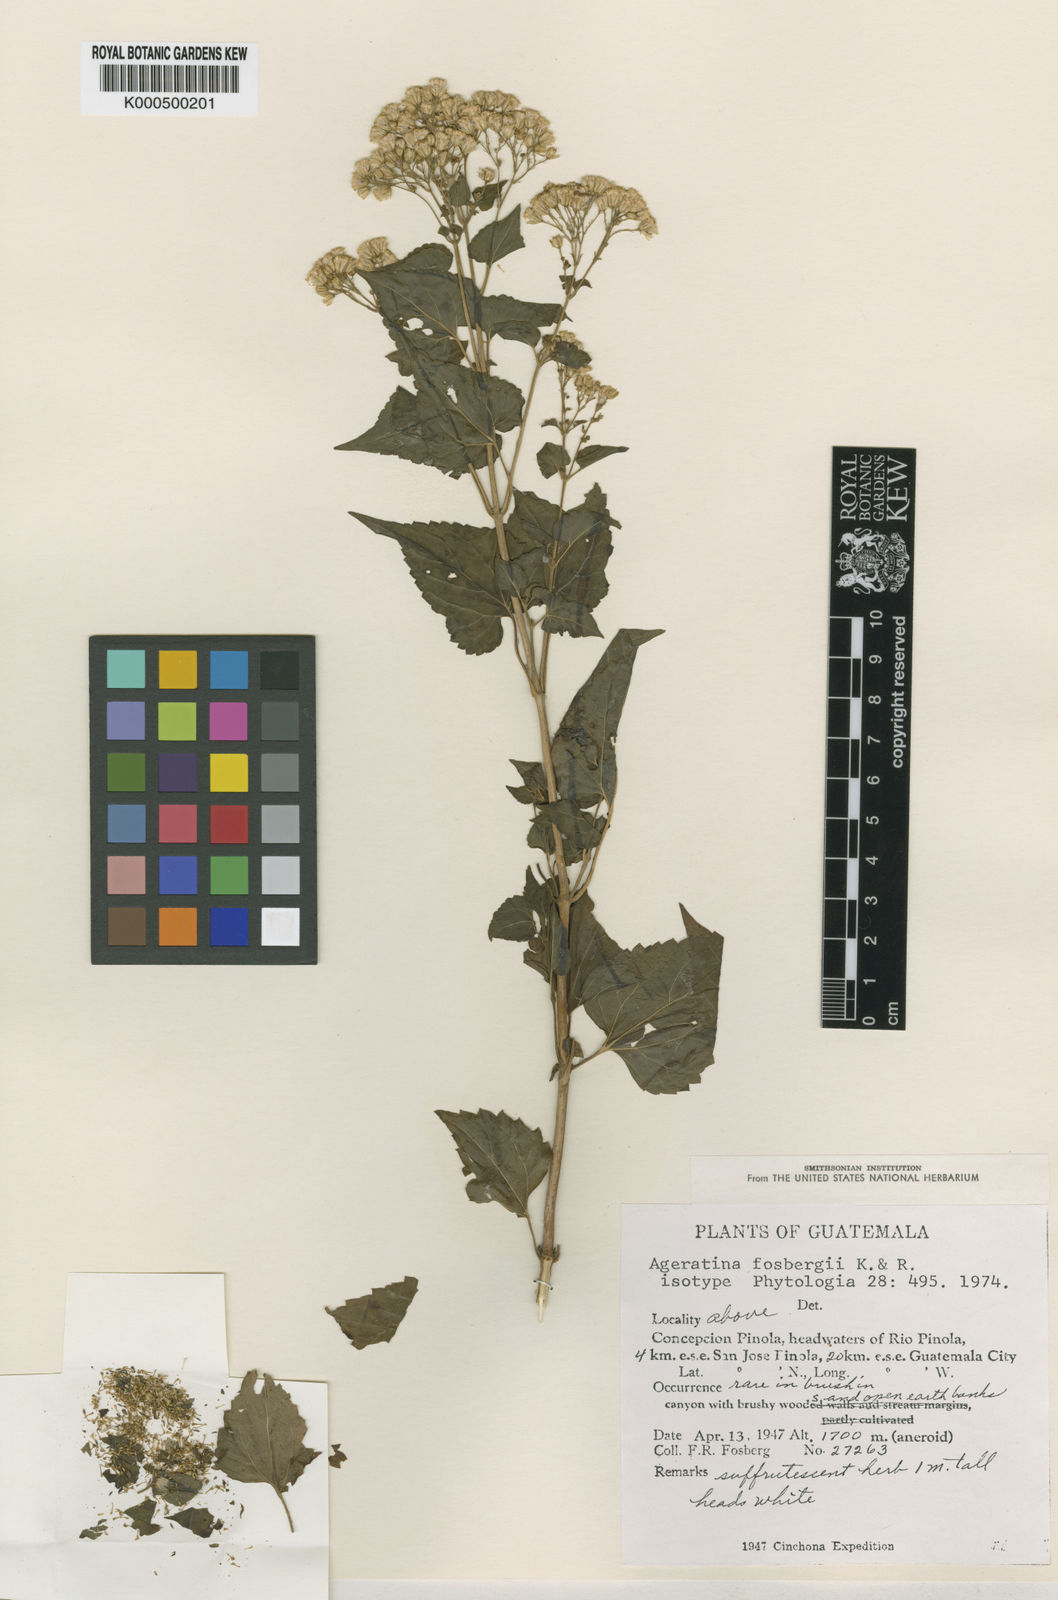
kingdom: Plantae
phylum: Tracheophyta
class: Magnoliopsida
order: Asterales
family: Asteraceae
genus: Ageratina
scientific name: Ageratina atrocordata
